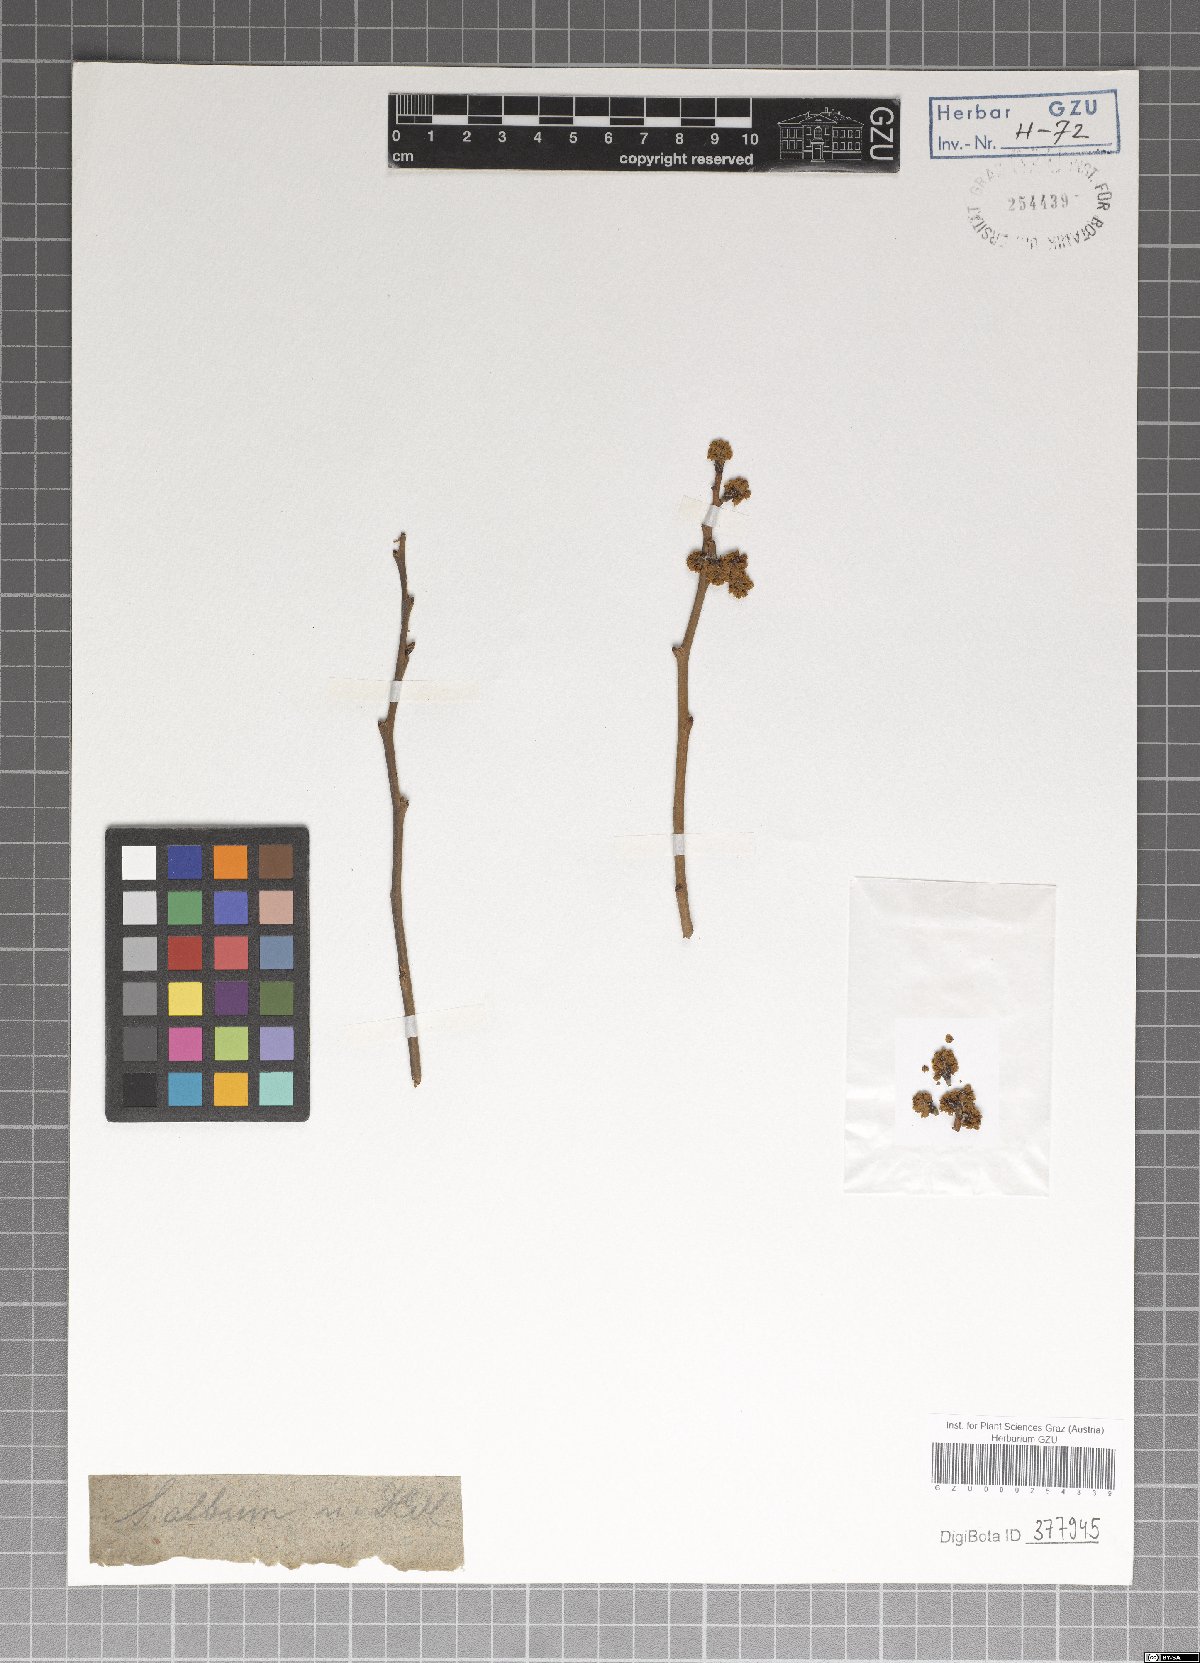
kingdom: Plantae
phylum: Tracheophyta
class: Magnoliopsida
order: Laurales
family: Lauraceae
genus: Ocotea
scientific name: Ocotea bullata
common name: Black stinkwood
